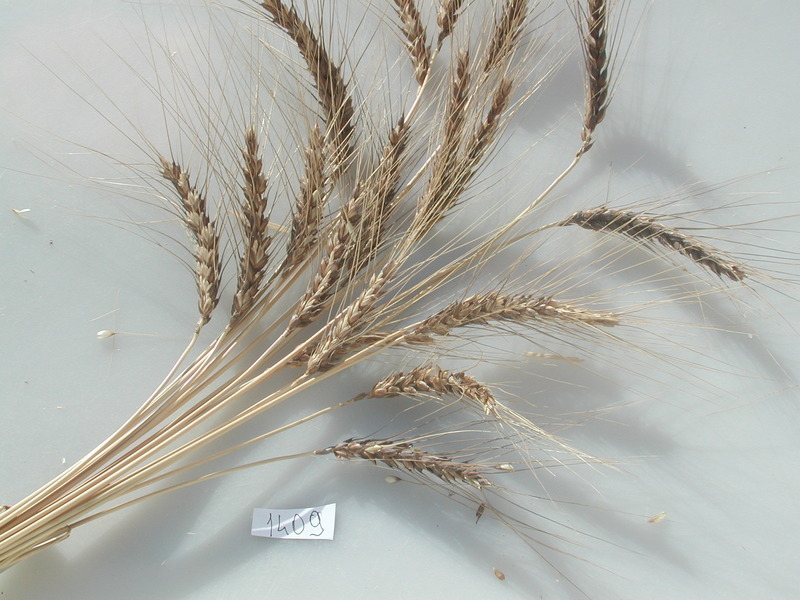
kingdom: Plantae
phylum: Tracheophyta
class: Liliopsida
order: Poales
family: Poaceae
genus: Triticum
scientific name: Triticum turgidum
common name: Wheat
